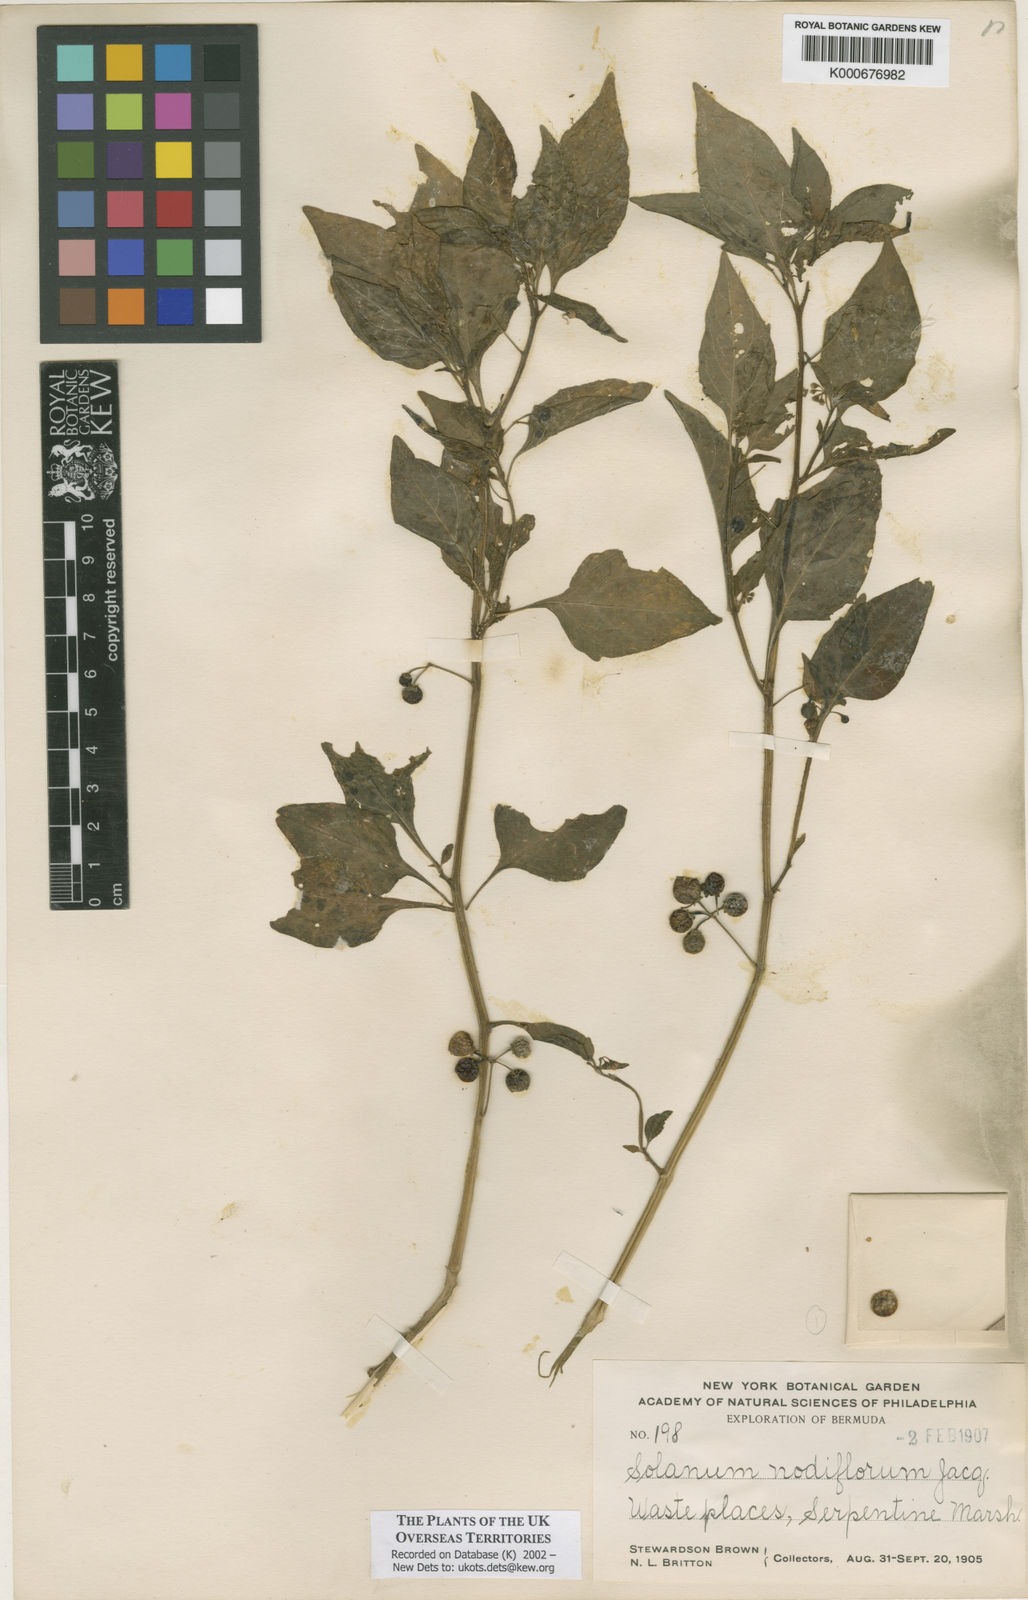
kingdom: Plantae
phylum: Tracheophyta
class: Magnoliopsida
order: Solanales
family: Solanaceae
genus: Solanum
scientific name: Solanum americanum
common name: American black nightshade
